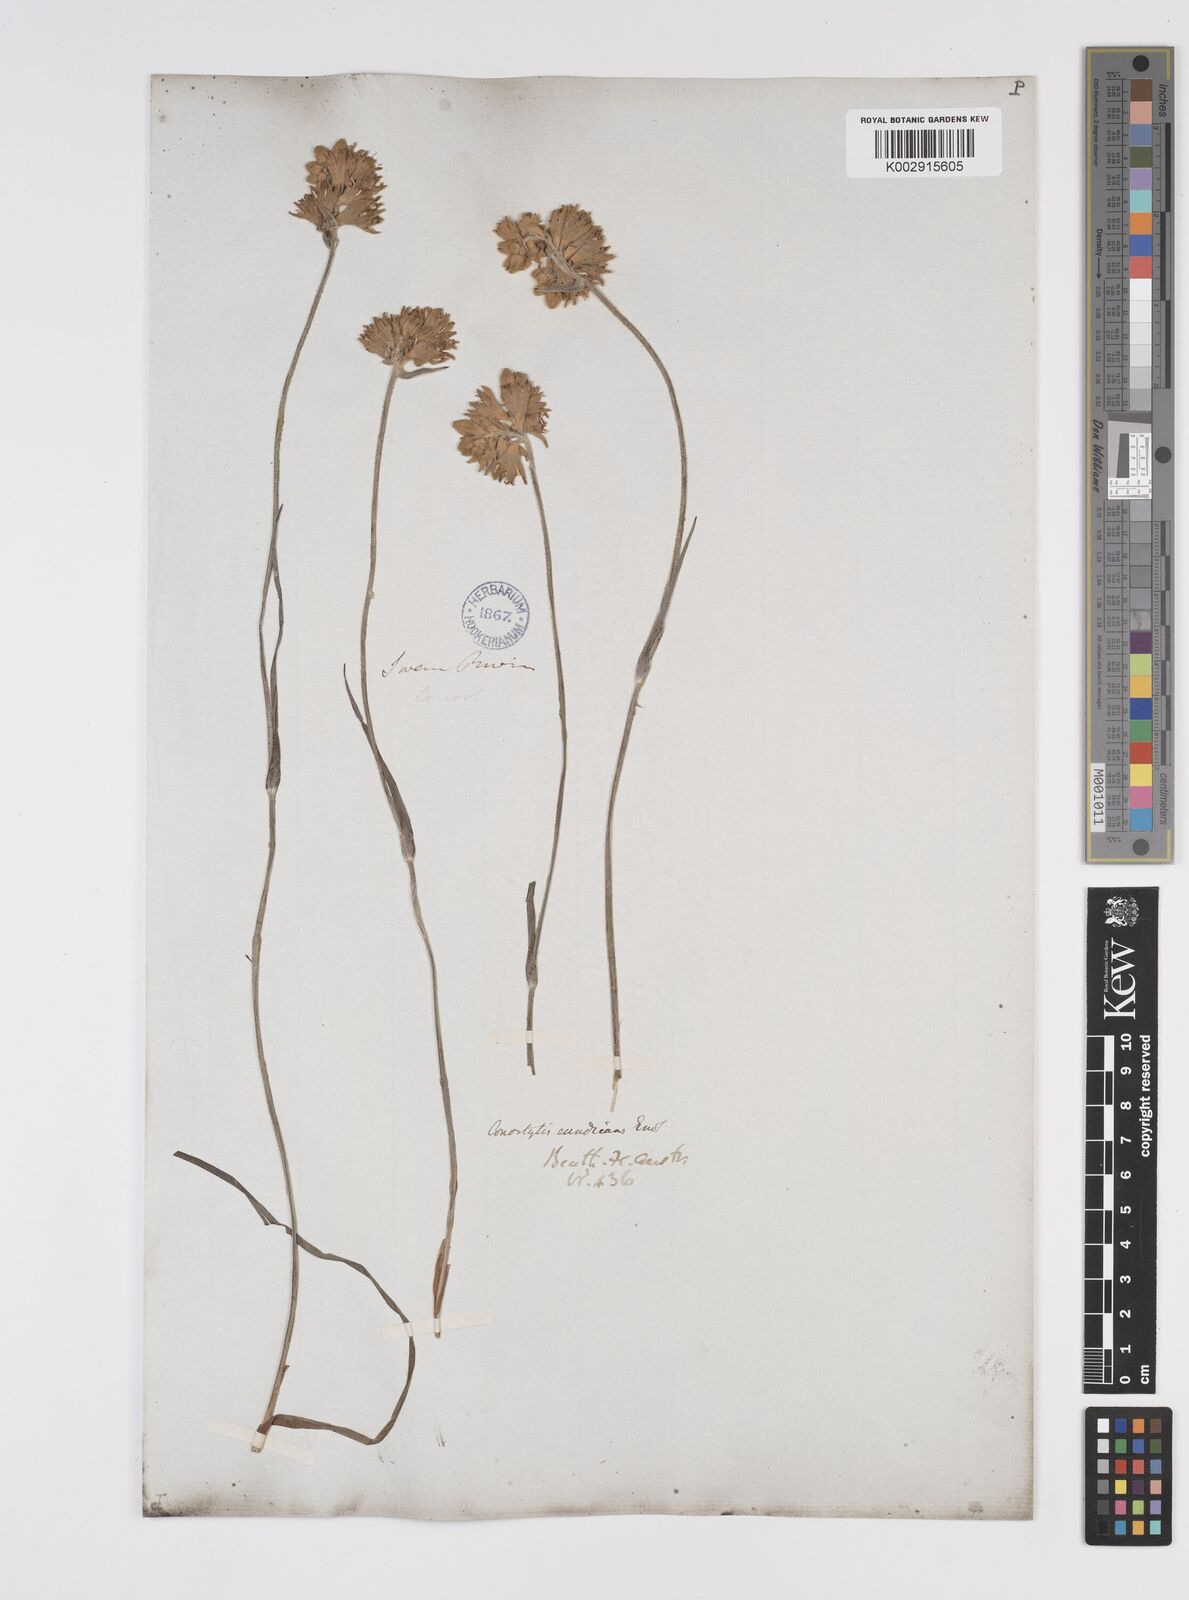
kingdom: Plantae
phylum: Tracheophyta
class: Liliopsida
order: Commelinales
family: Haemodoraceae
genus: Conostylis
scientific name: Conostylis candicans
